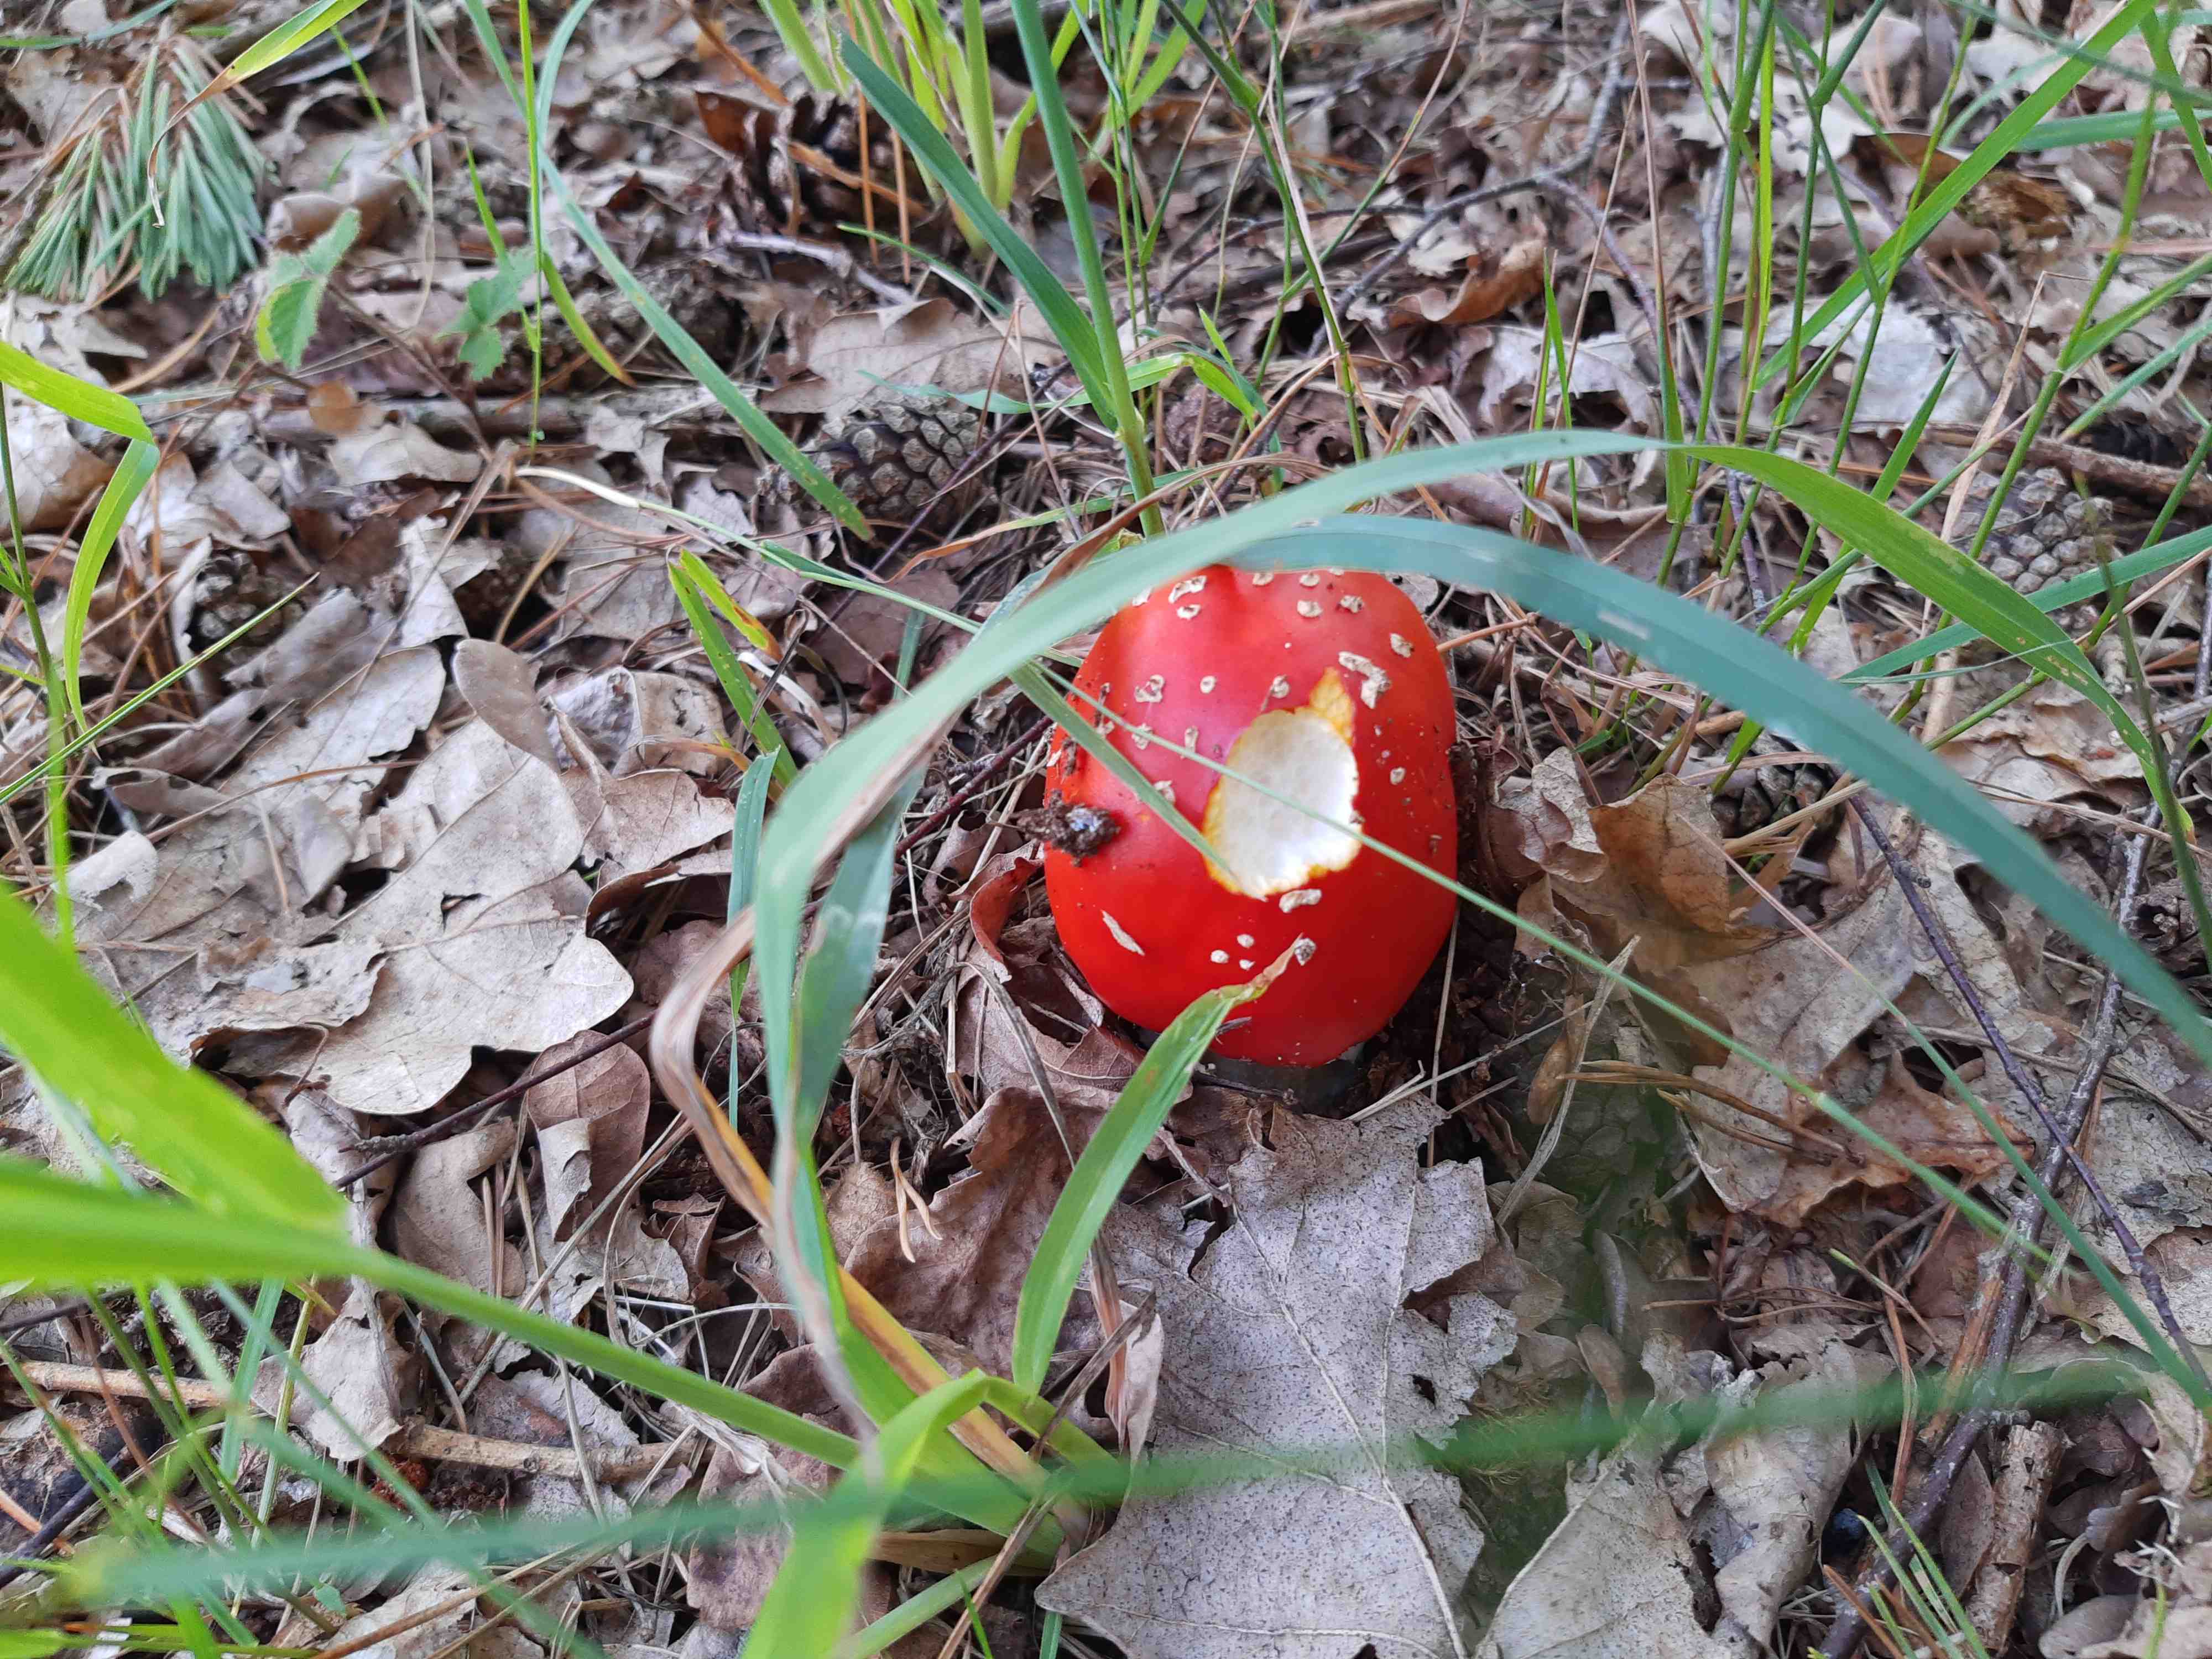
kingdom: Fungi
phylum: Basidiomycota
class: Agaricomycetes
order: Agaricales
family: Amanitaceae
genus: Amanita
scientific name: Amanita muscaria
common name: rød fluesvamp
